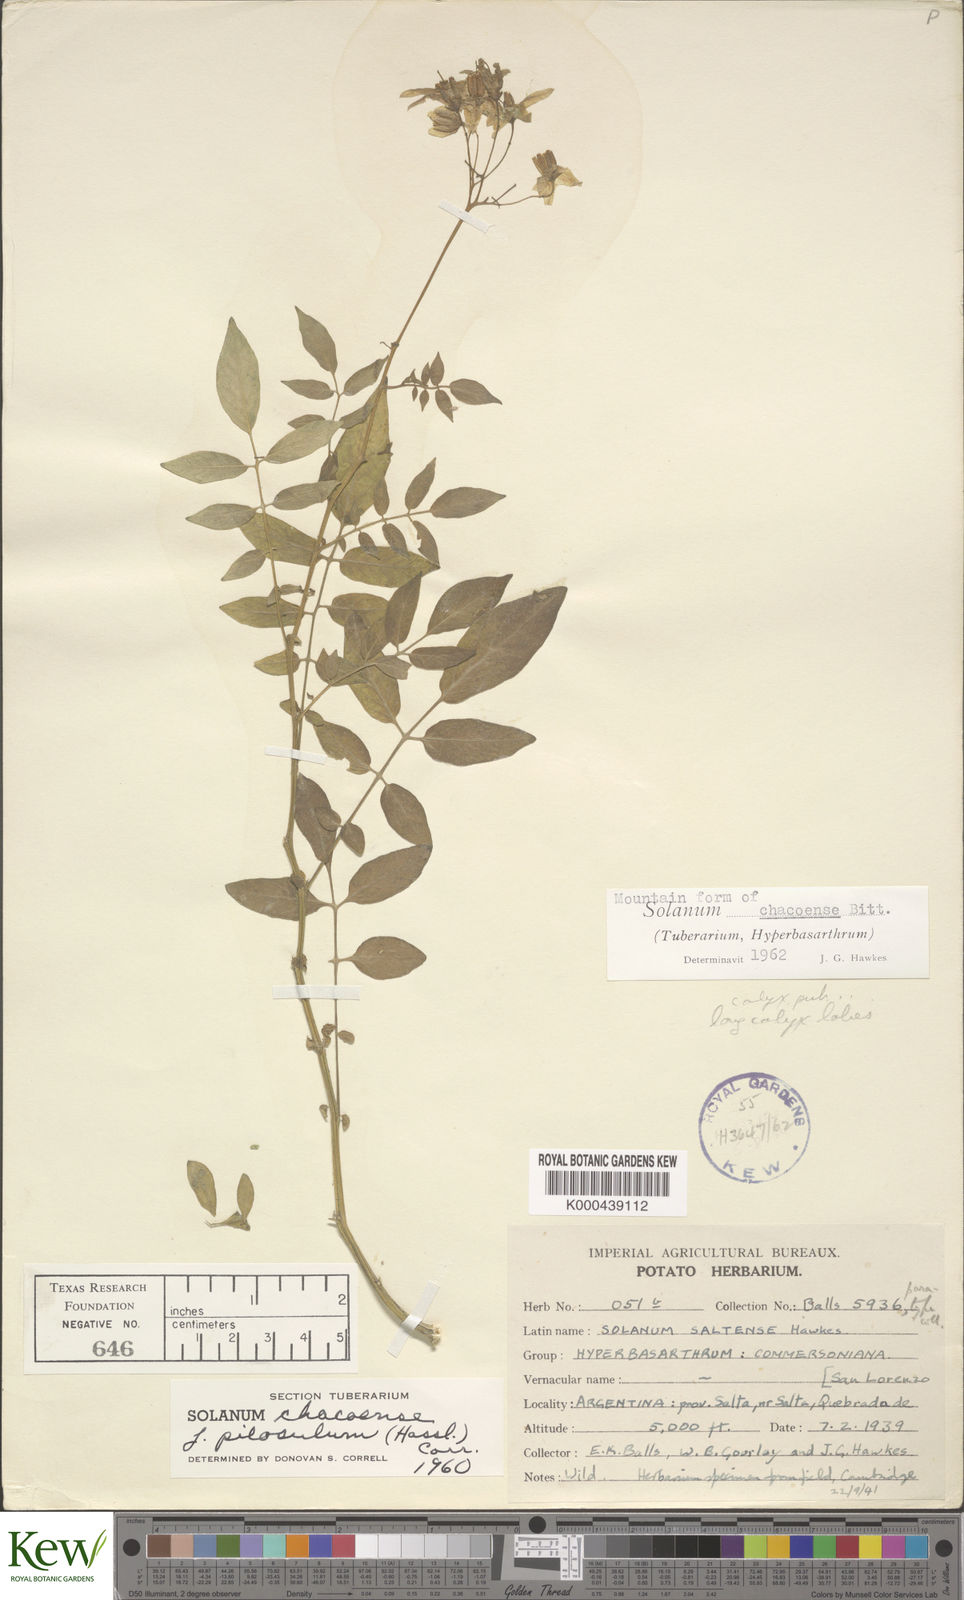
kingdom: Plantae
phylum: Tracheophyta
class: Magnoliopsida
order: Solanales
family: Solanaceae
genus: Solanum
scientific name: Solanum chacoense
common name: Chaco potato
